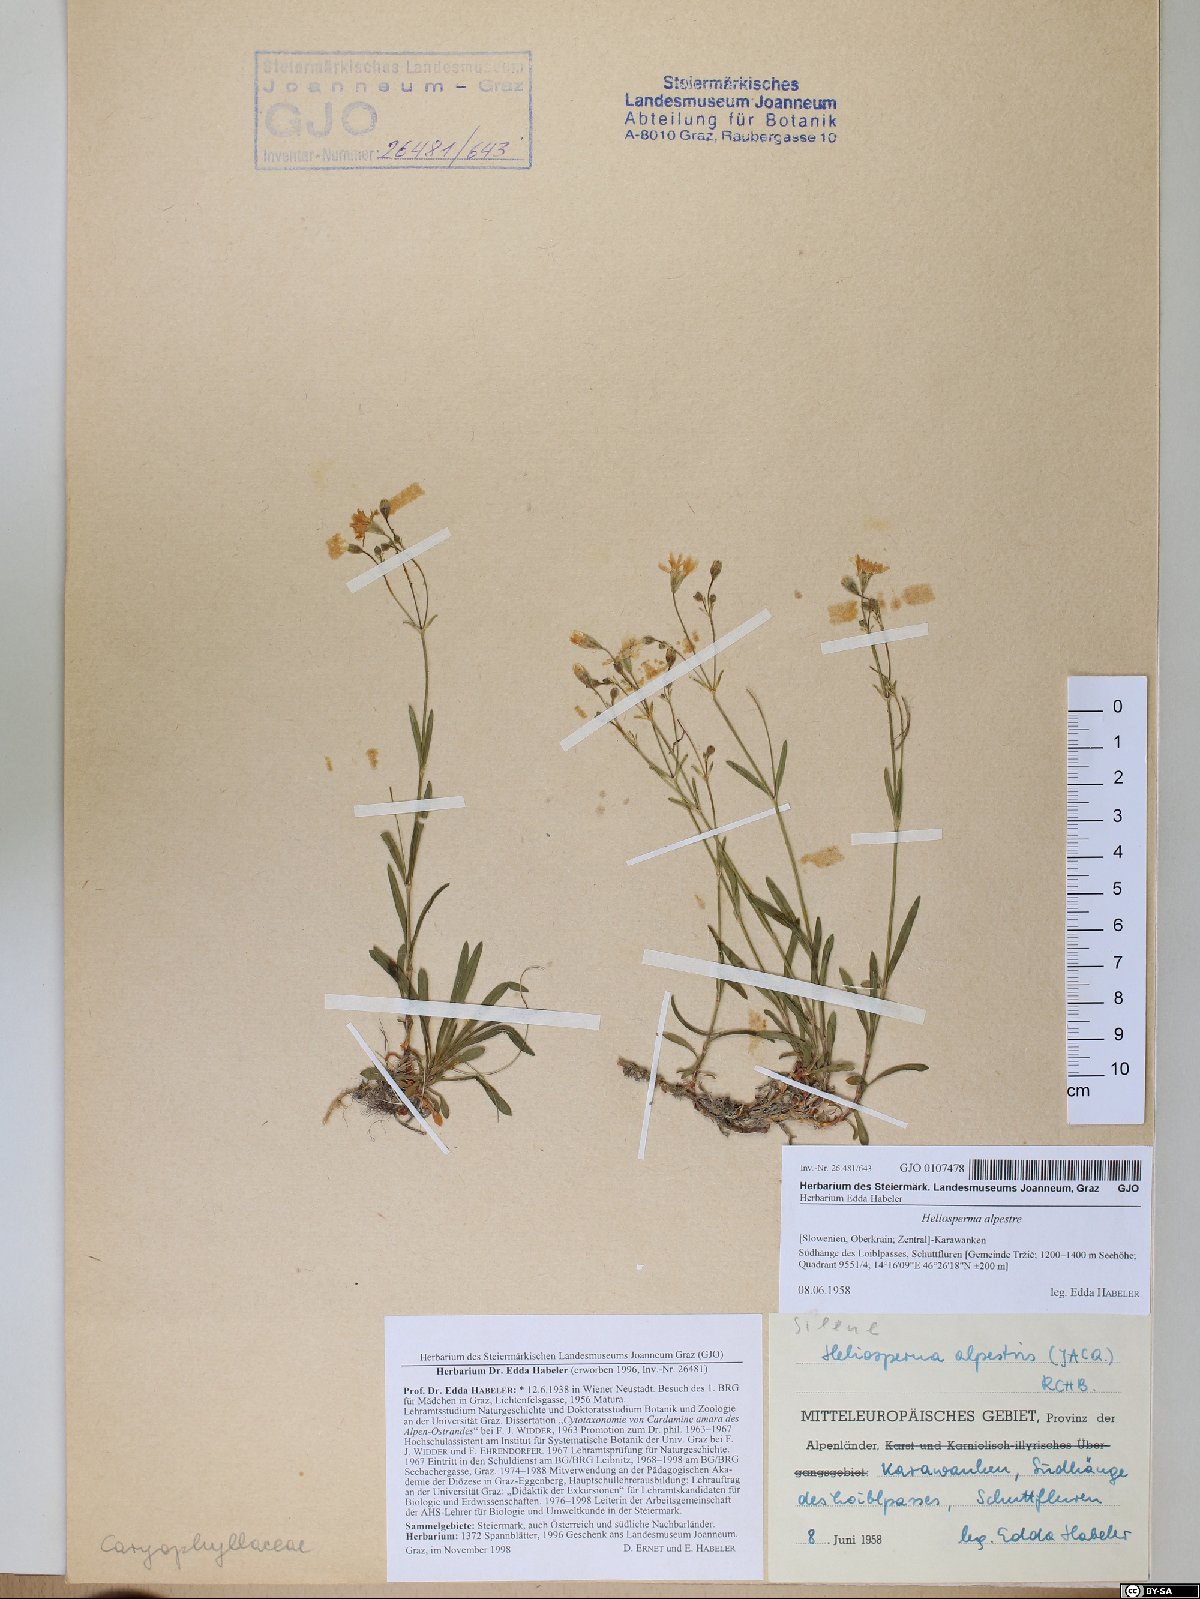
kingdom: Plantae
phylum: Tracheophyta
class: Magnoliopsida
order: Caryophyllales
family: Caryophyllaceae
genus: Heliosperma
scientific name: Heliosperma alpestre
